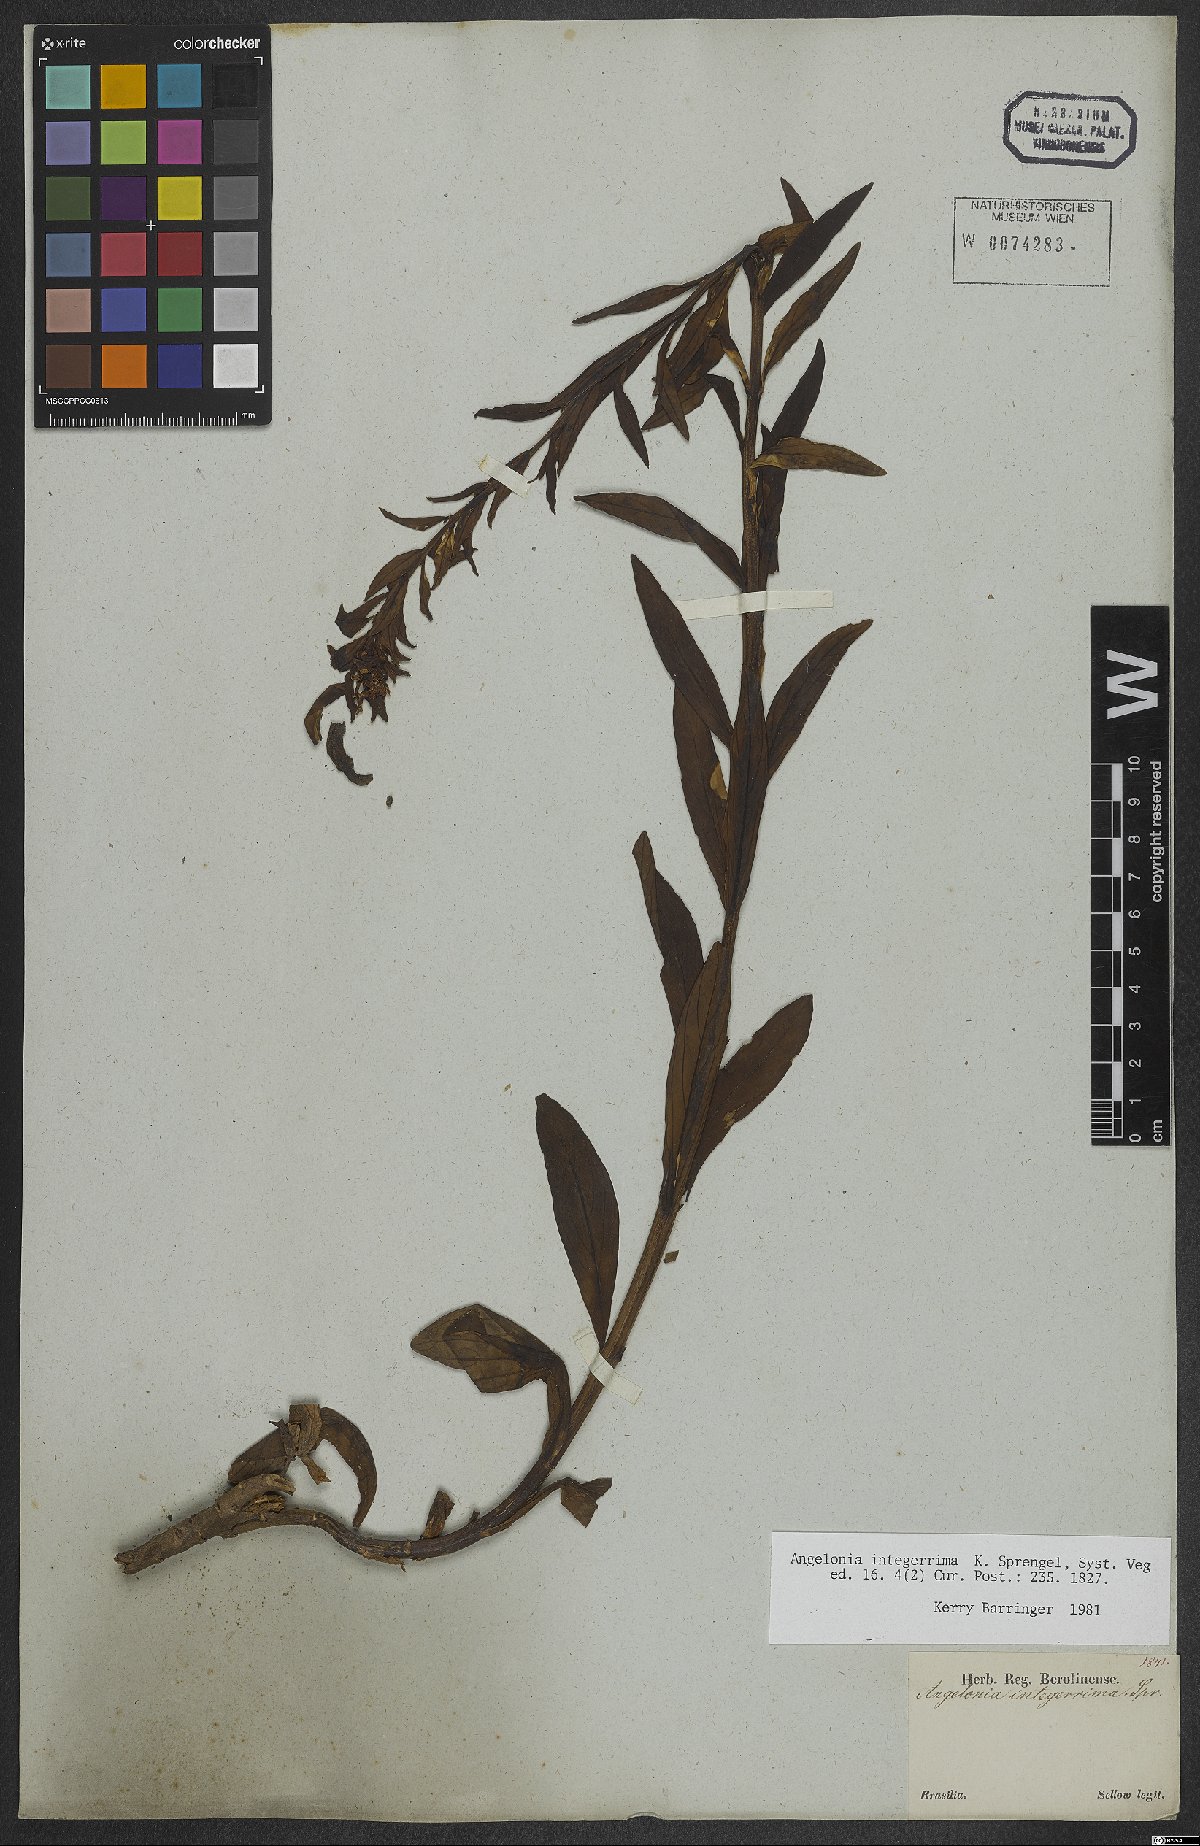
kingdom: Plantae
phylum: Tracheophyta
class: Magnoliopsida
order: Lamiales
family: Plantaginaceae
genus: Angelonia
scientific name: Angelonia integerrima
